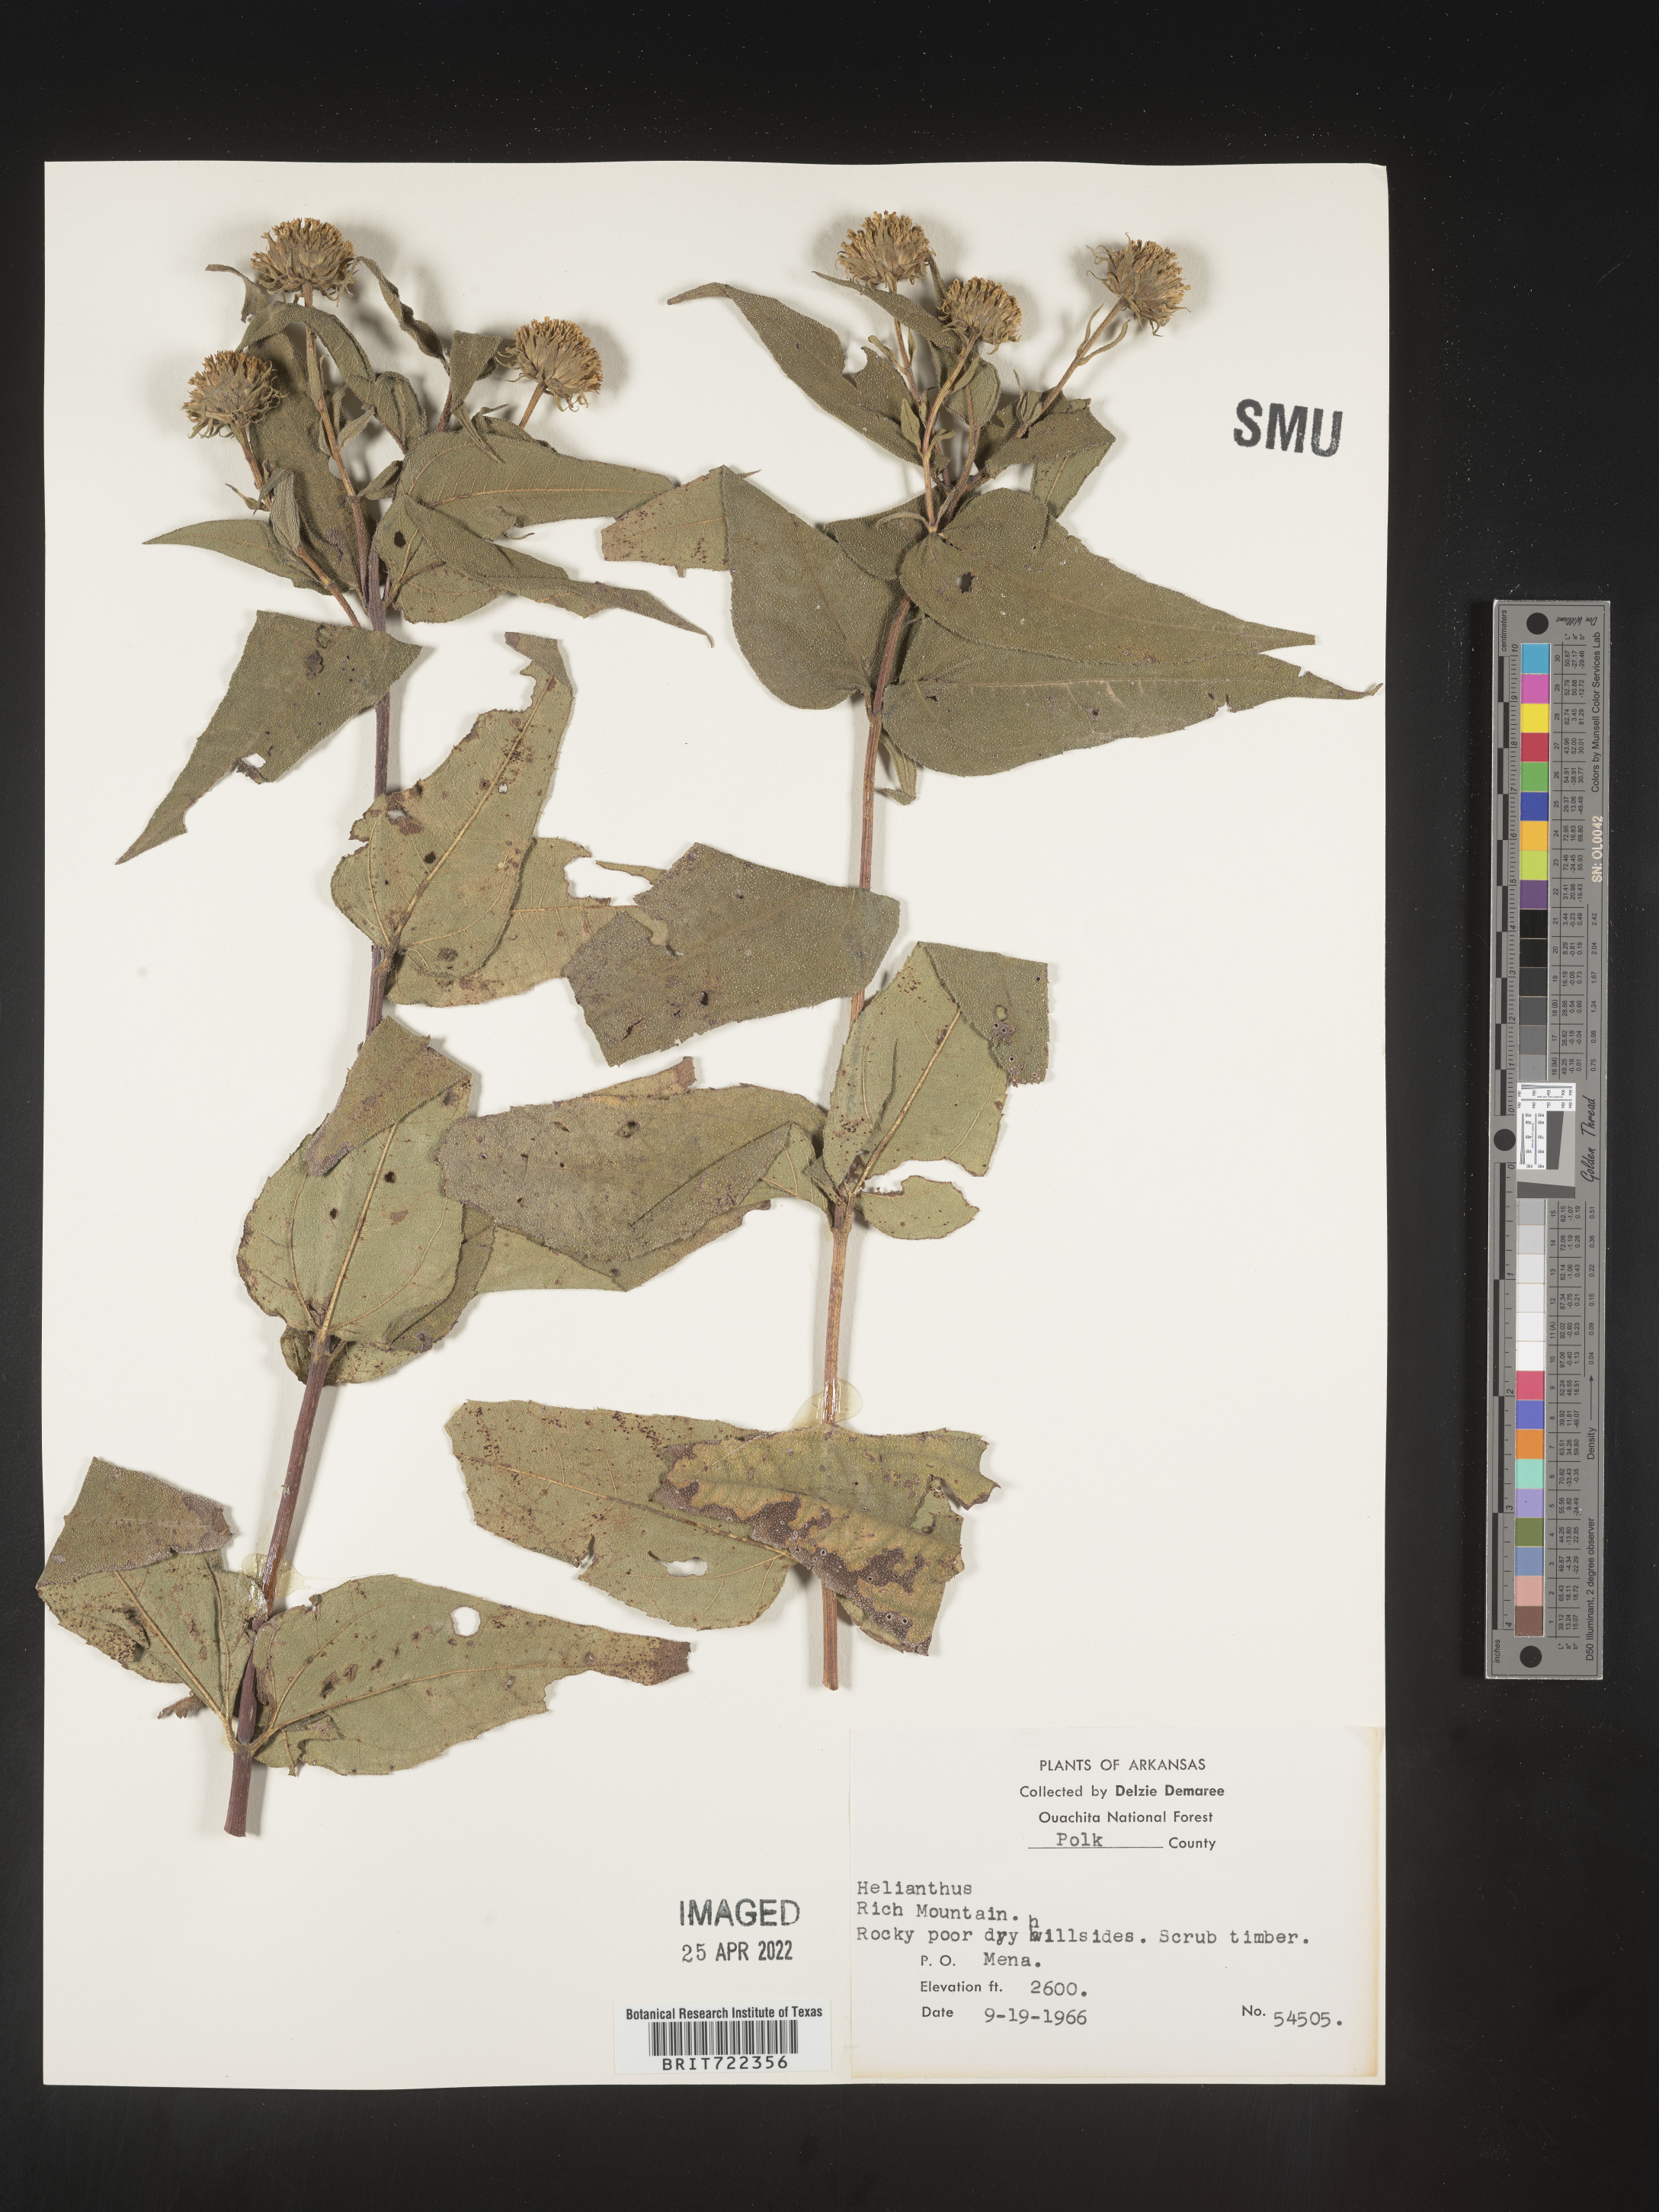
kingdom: Plantae
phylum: Tracheophyta
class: Magnoliopsida
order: Asterales
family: Asteraceae
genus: Helianthus
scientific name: Helianthus hirsutus
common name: Hairy sunflower
